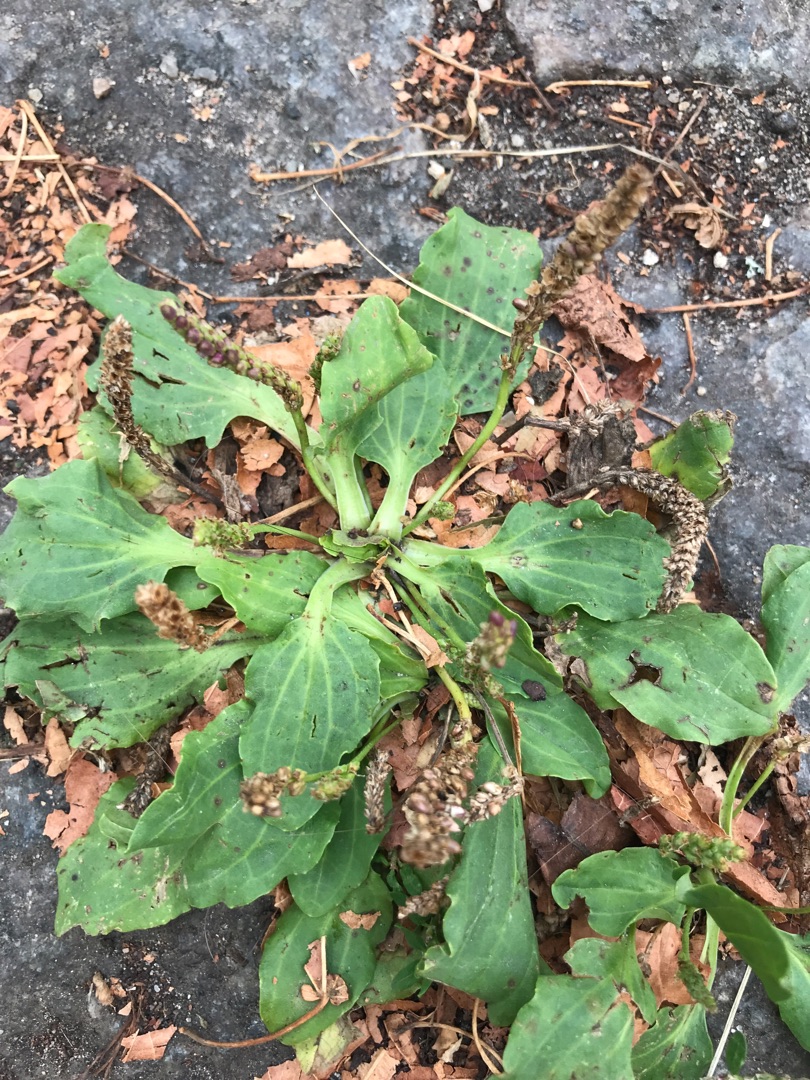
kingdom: Plantae
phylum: Tracheophyta
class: Magnoliopsida
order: Lamiales
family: Plantaginaceae
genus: Plantago
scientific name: Plantago major
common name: Glat vejbred
